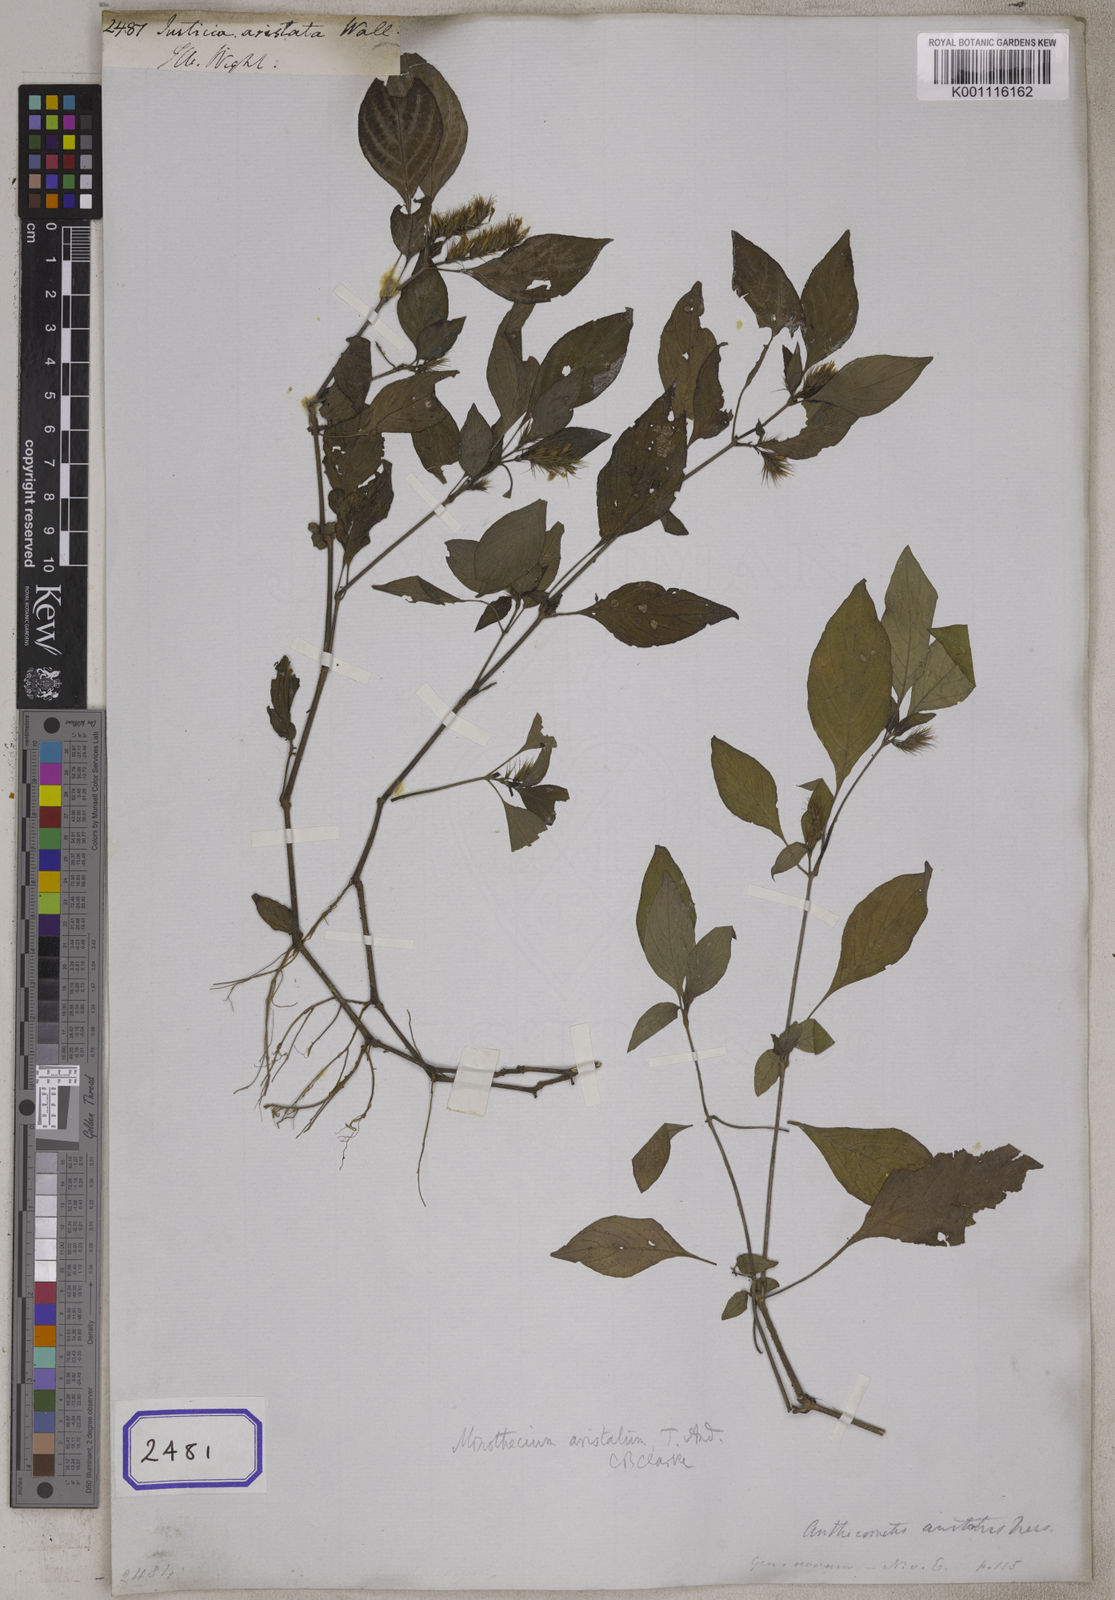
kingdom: Plantae
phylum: Tracheophyta
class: Magnoliopsida
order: Lamiales
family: Acanthaceae
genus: Justicia
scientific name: Justicia
